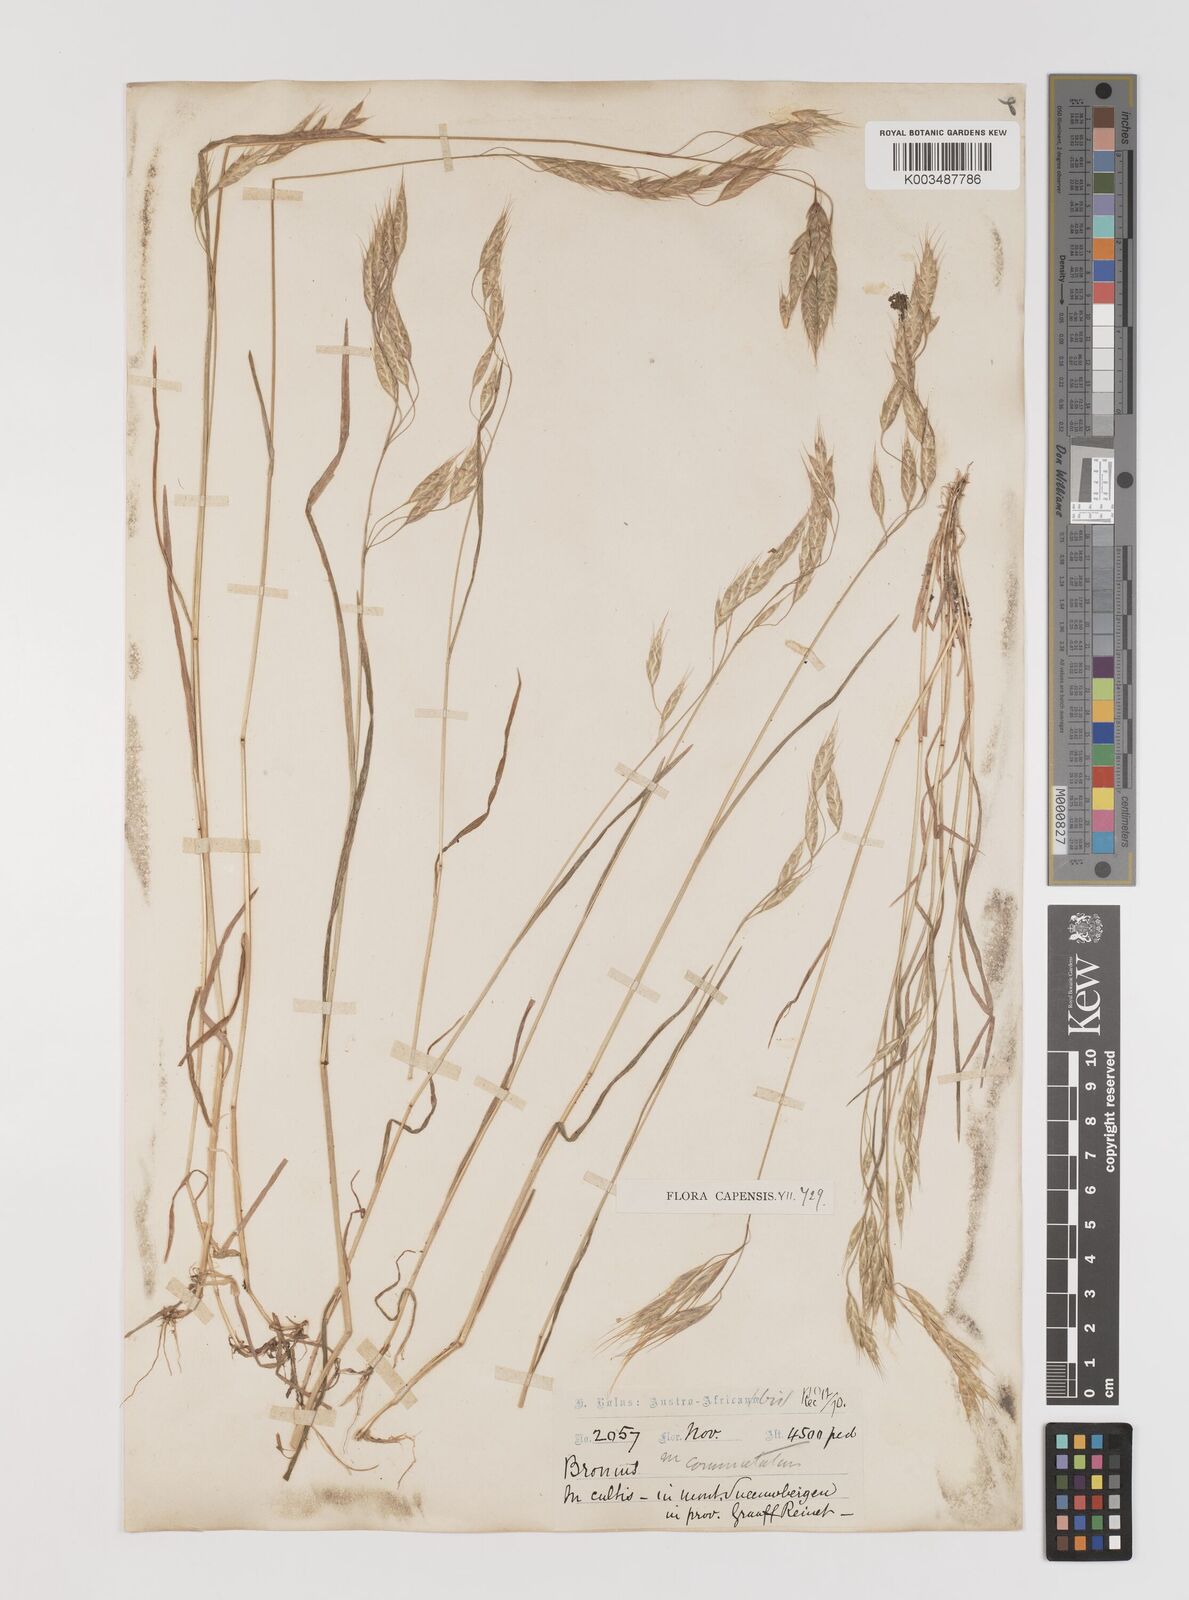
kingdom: Plantae
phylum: Tracheophyta
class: Liliopsida
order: Poales
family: Poaceae
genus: Bromus
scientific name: Bromus racemosus
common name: Bald brome
